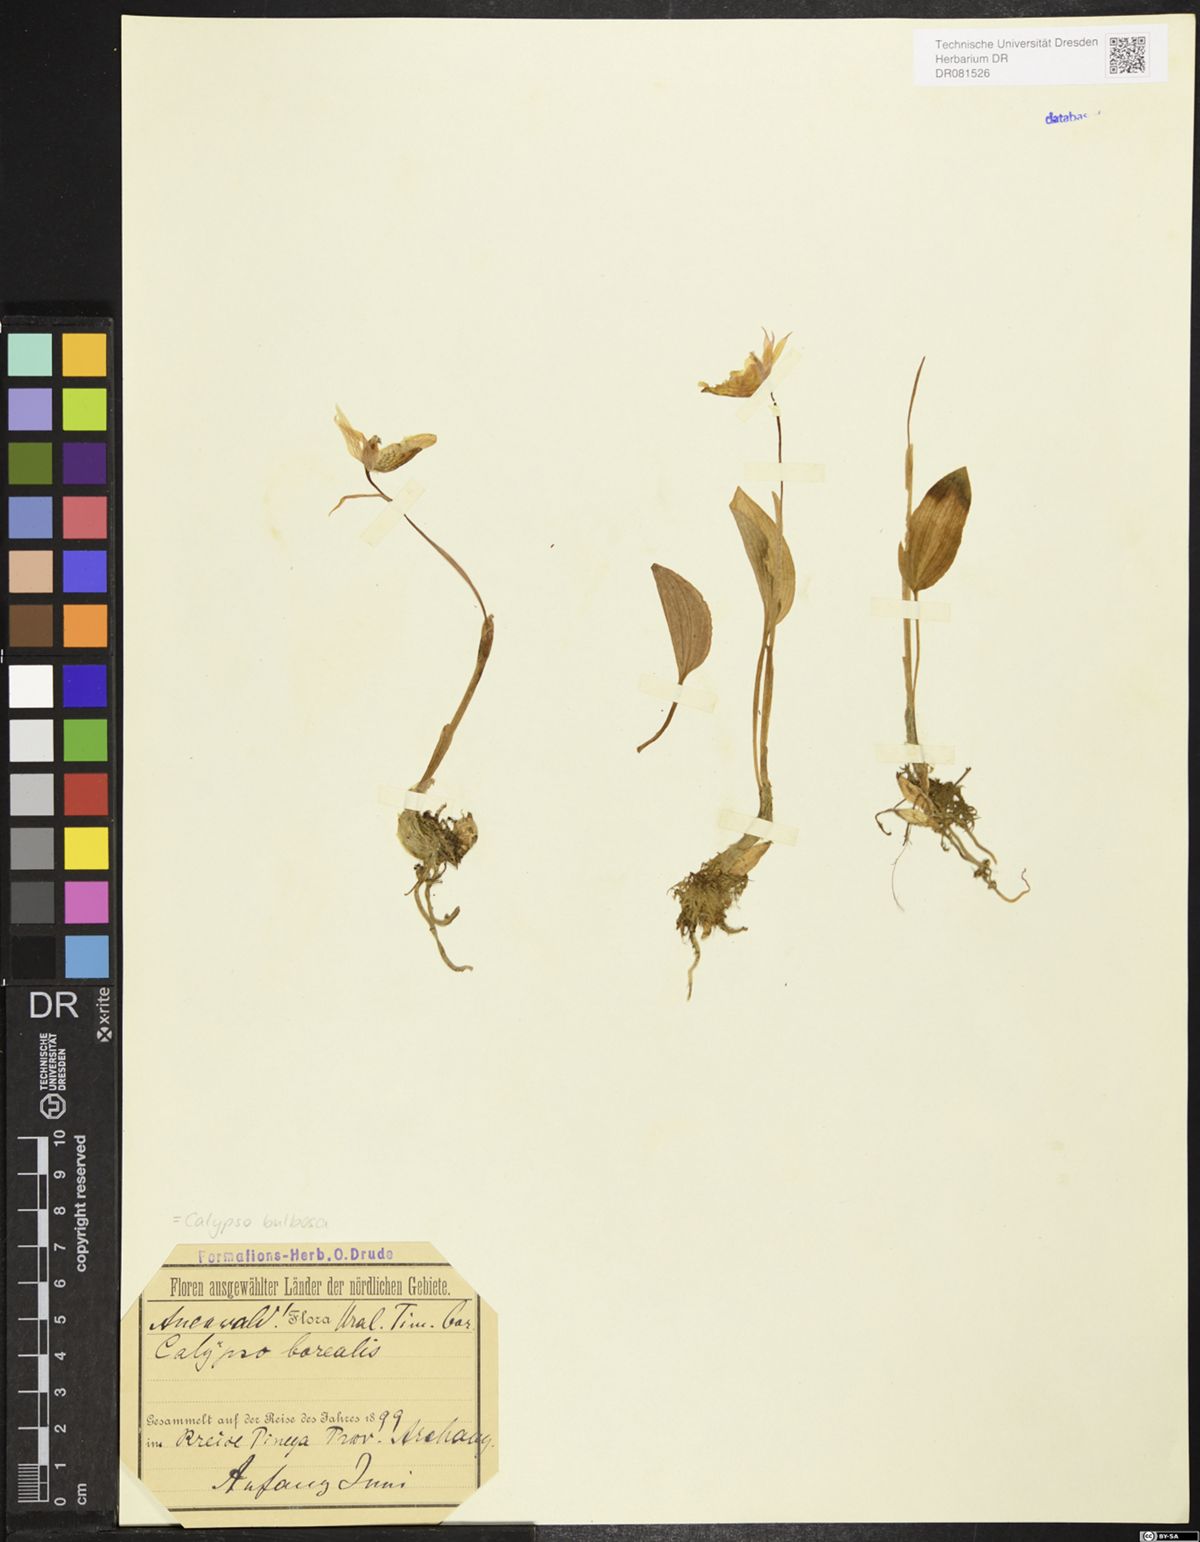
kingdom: Plantae
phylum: Tracheophyta
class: Liliopsida
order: Asparagales
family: Orchidaceae
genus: Calypso
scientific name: Calypso bulbosa
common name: Calypso
